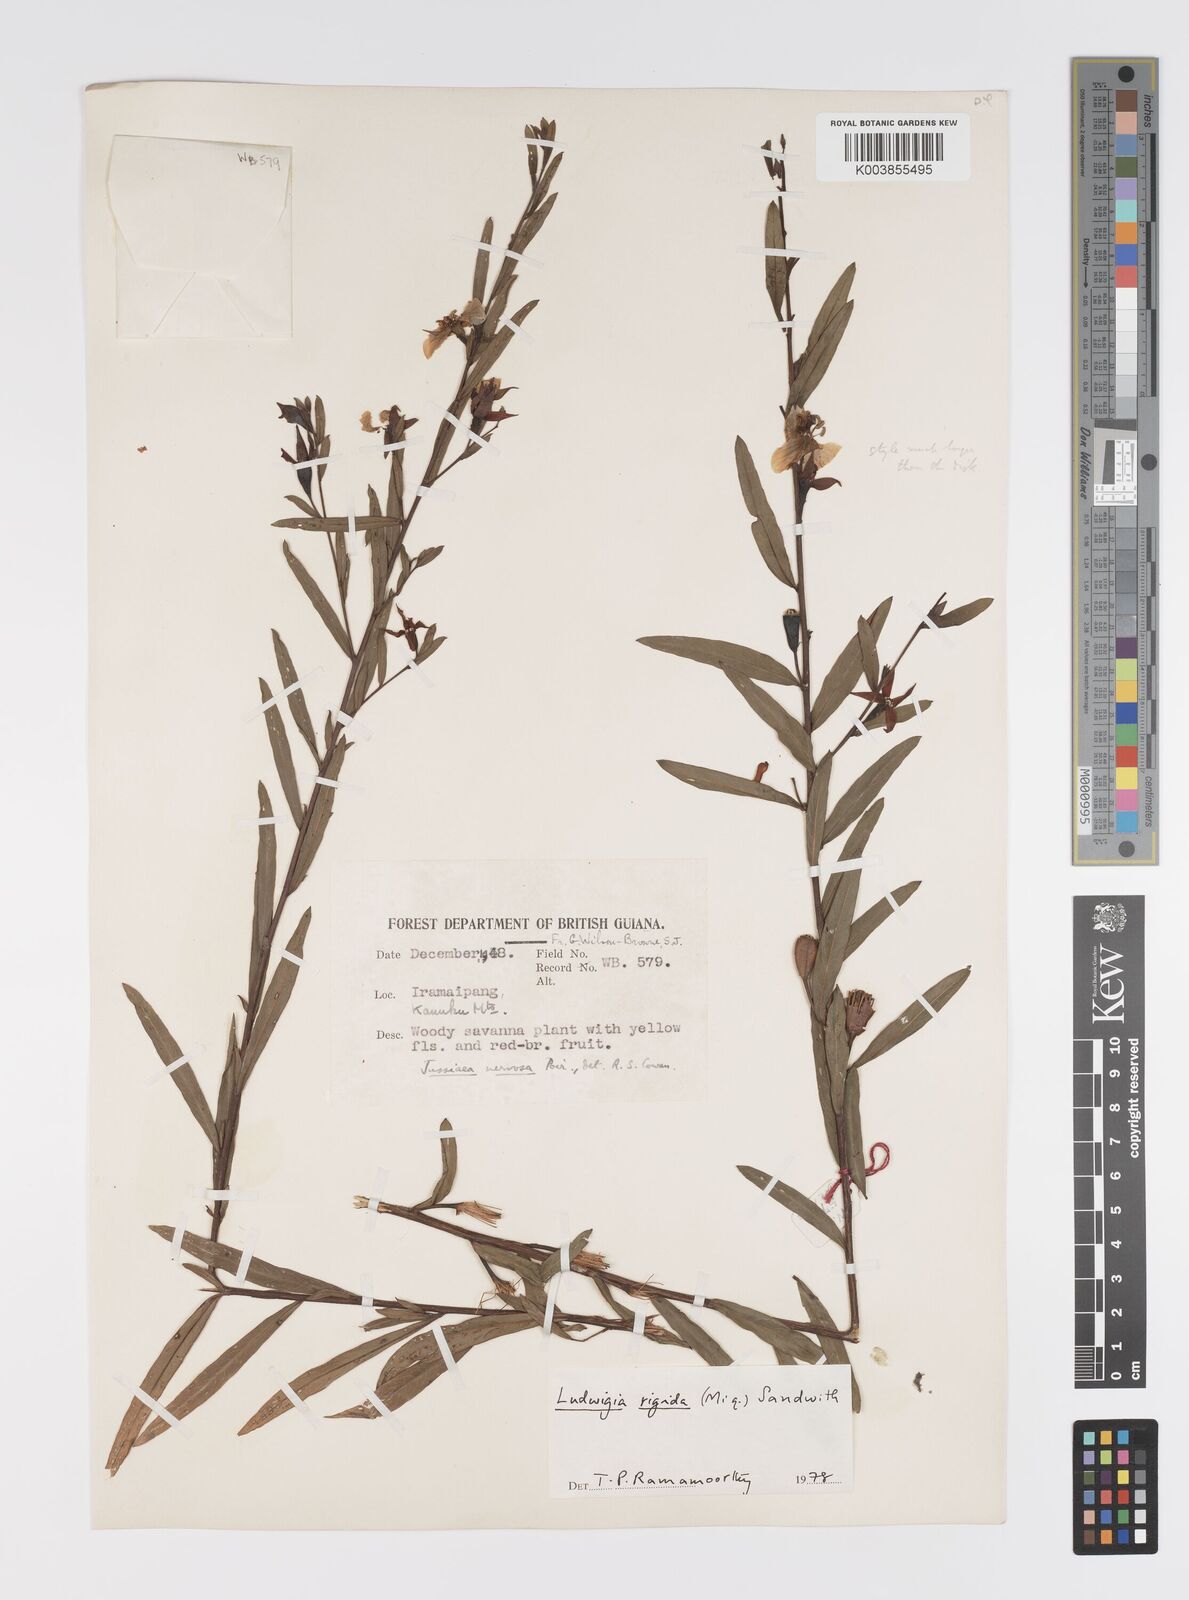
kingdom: Plantae
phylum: Tracheophyta
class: Magnoliopsida
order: Myrtales
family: Onagraceae
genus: Ludwigia
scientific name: Ludwigia rigida
